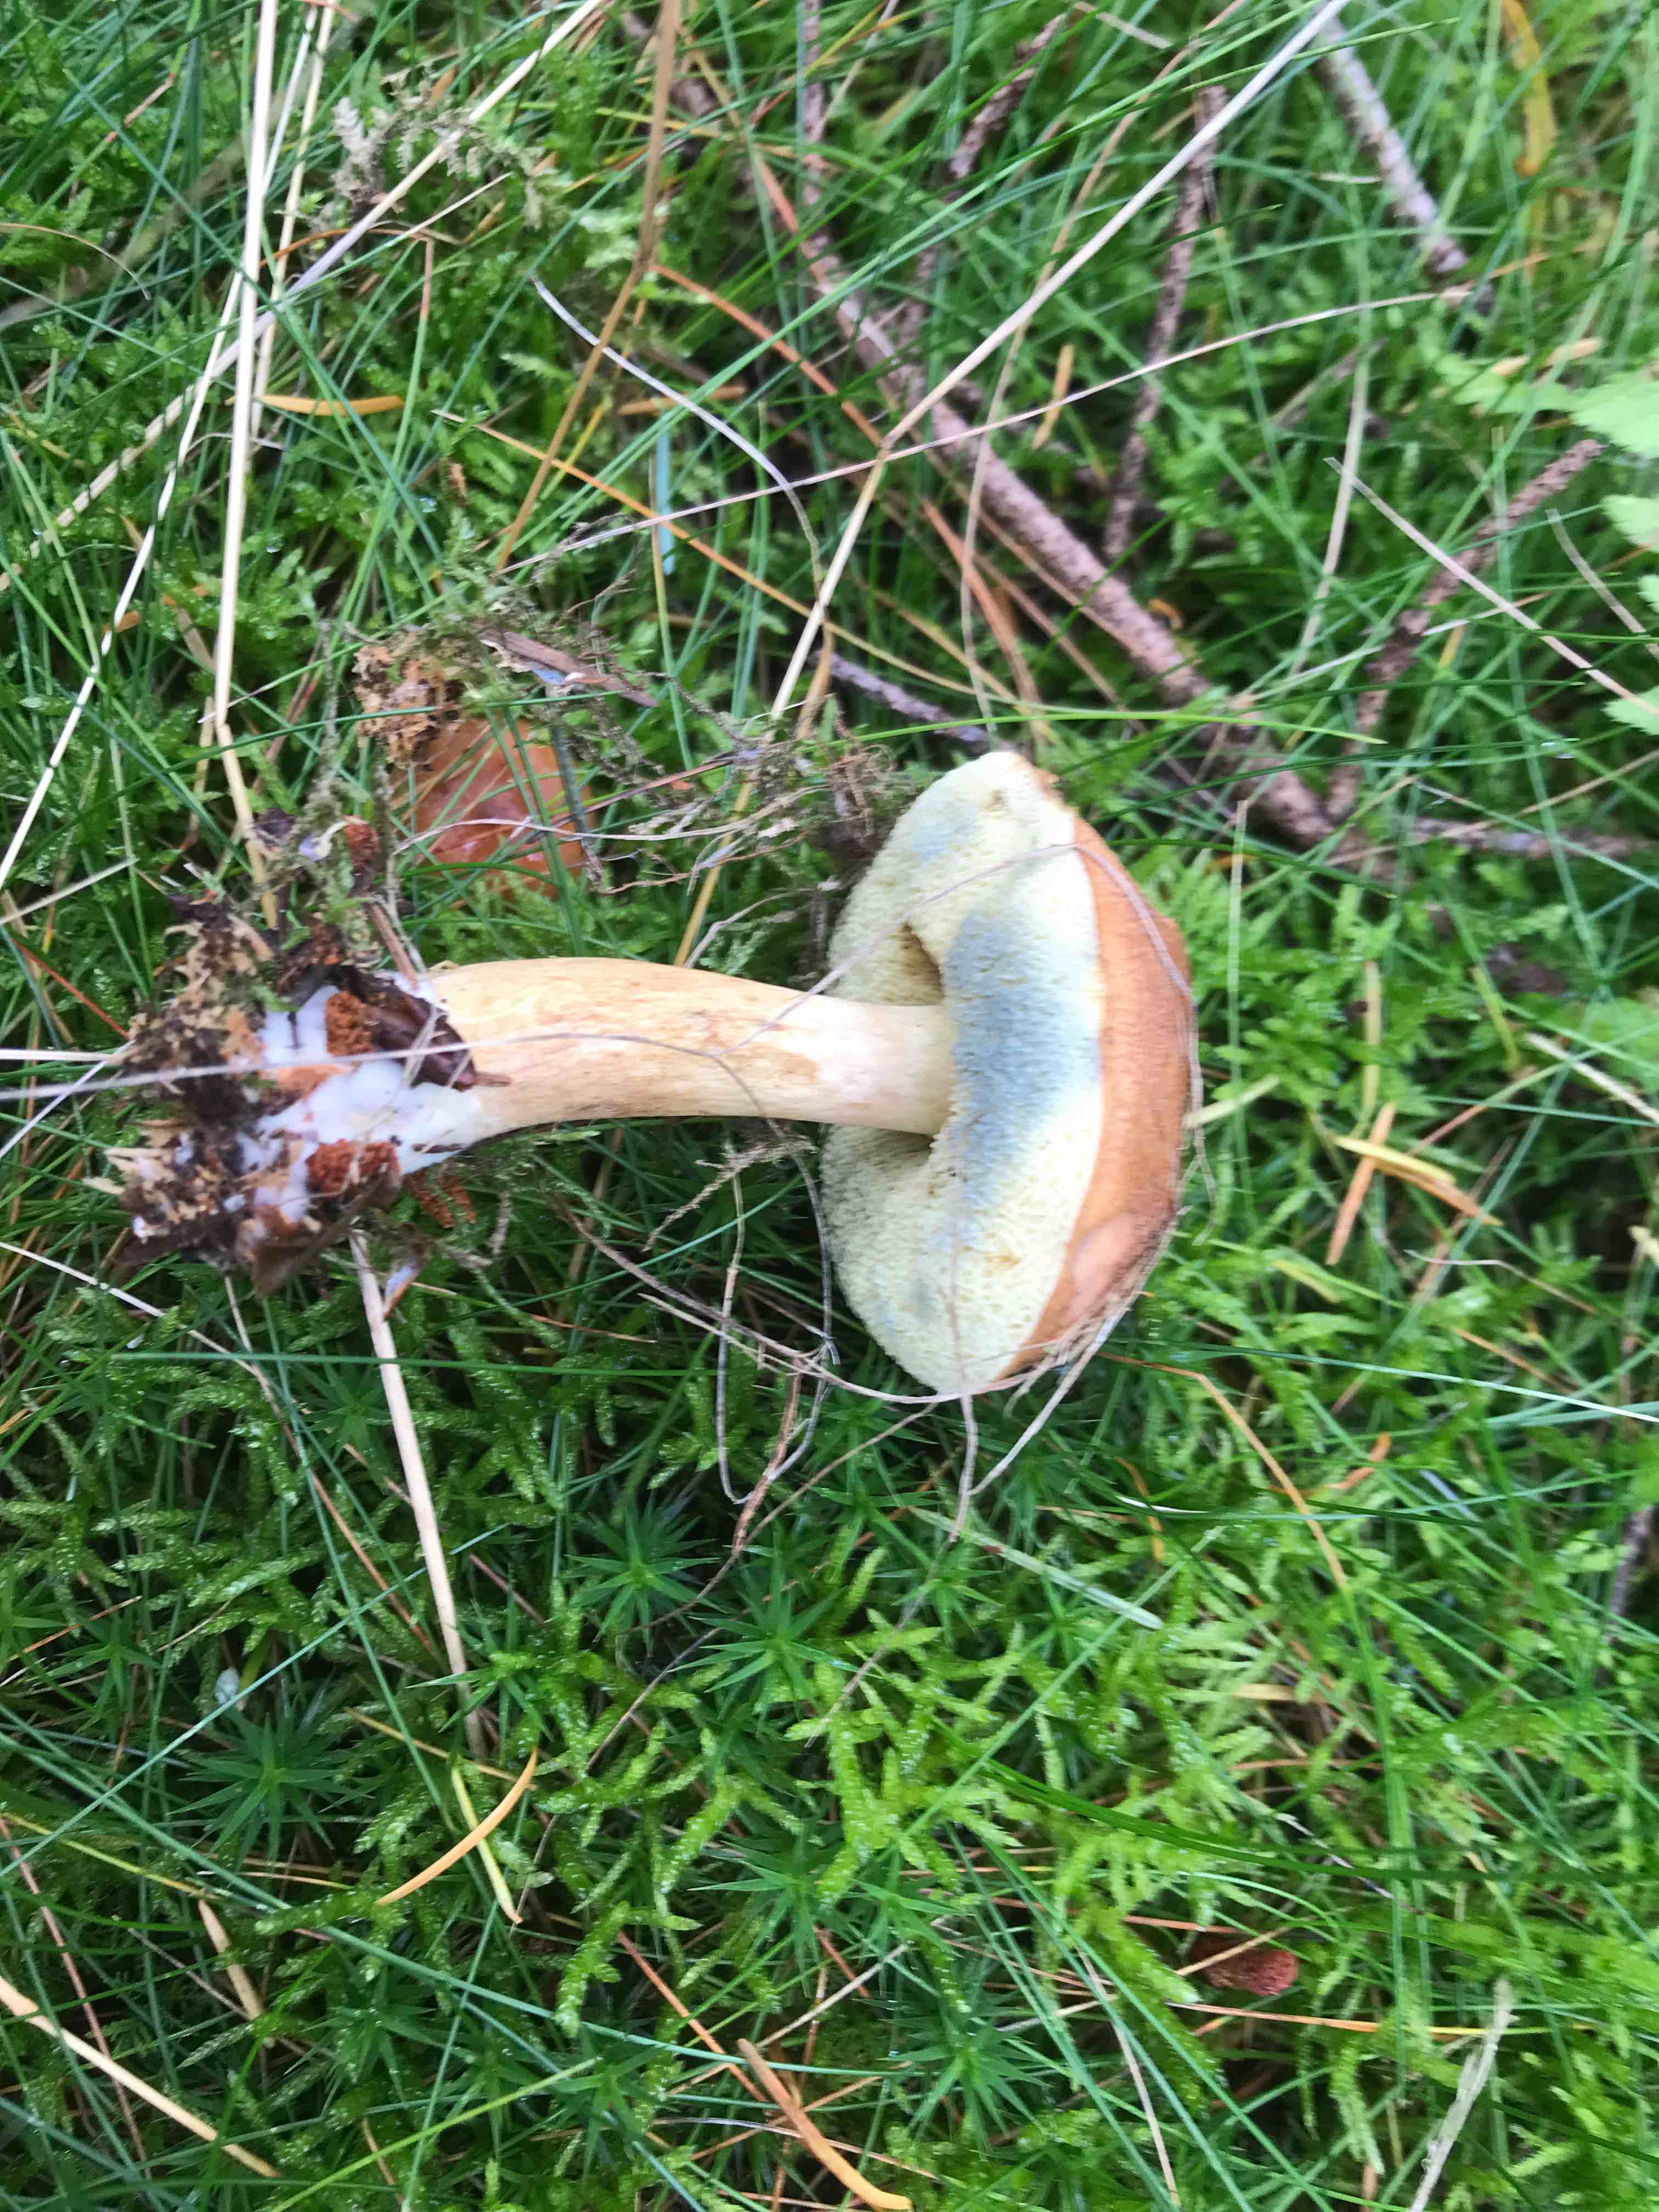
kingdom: Fungi
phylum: Basidiomycota
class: Agaricomycetes
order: Boletales
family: Boletaceae
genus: Imleria
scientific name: Imleria badia
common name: brunstokket rørhat
